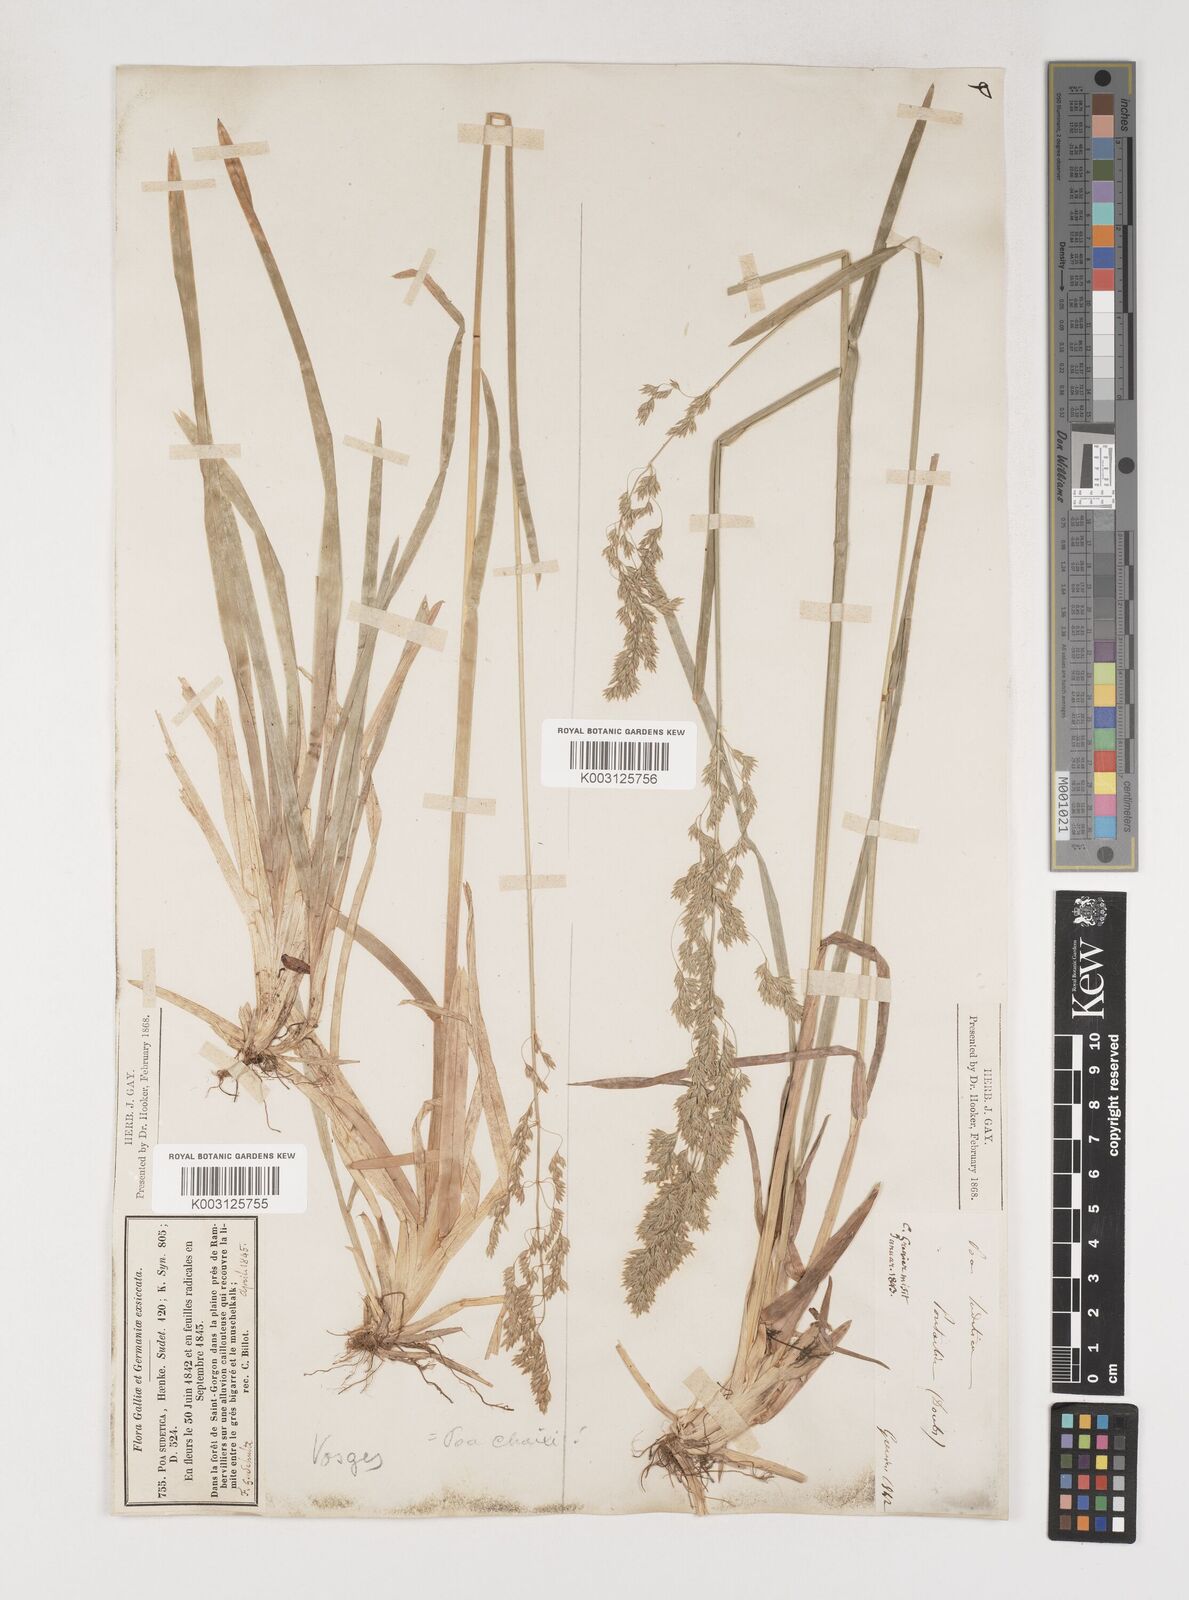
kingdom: Plantae
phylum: Tracheophyta
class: Liliopsida
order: Poales
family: Poaceae
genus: Poa
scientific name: Poa chaixii
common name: Broad-leaved meadow-grass
